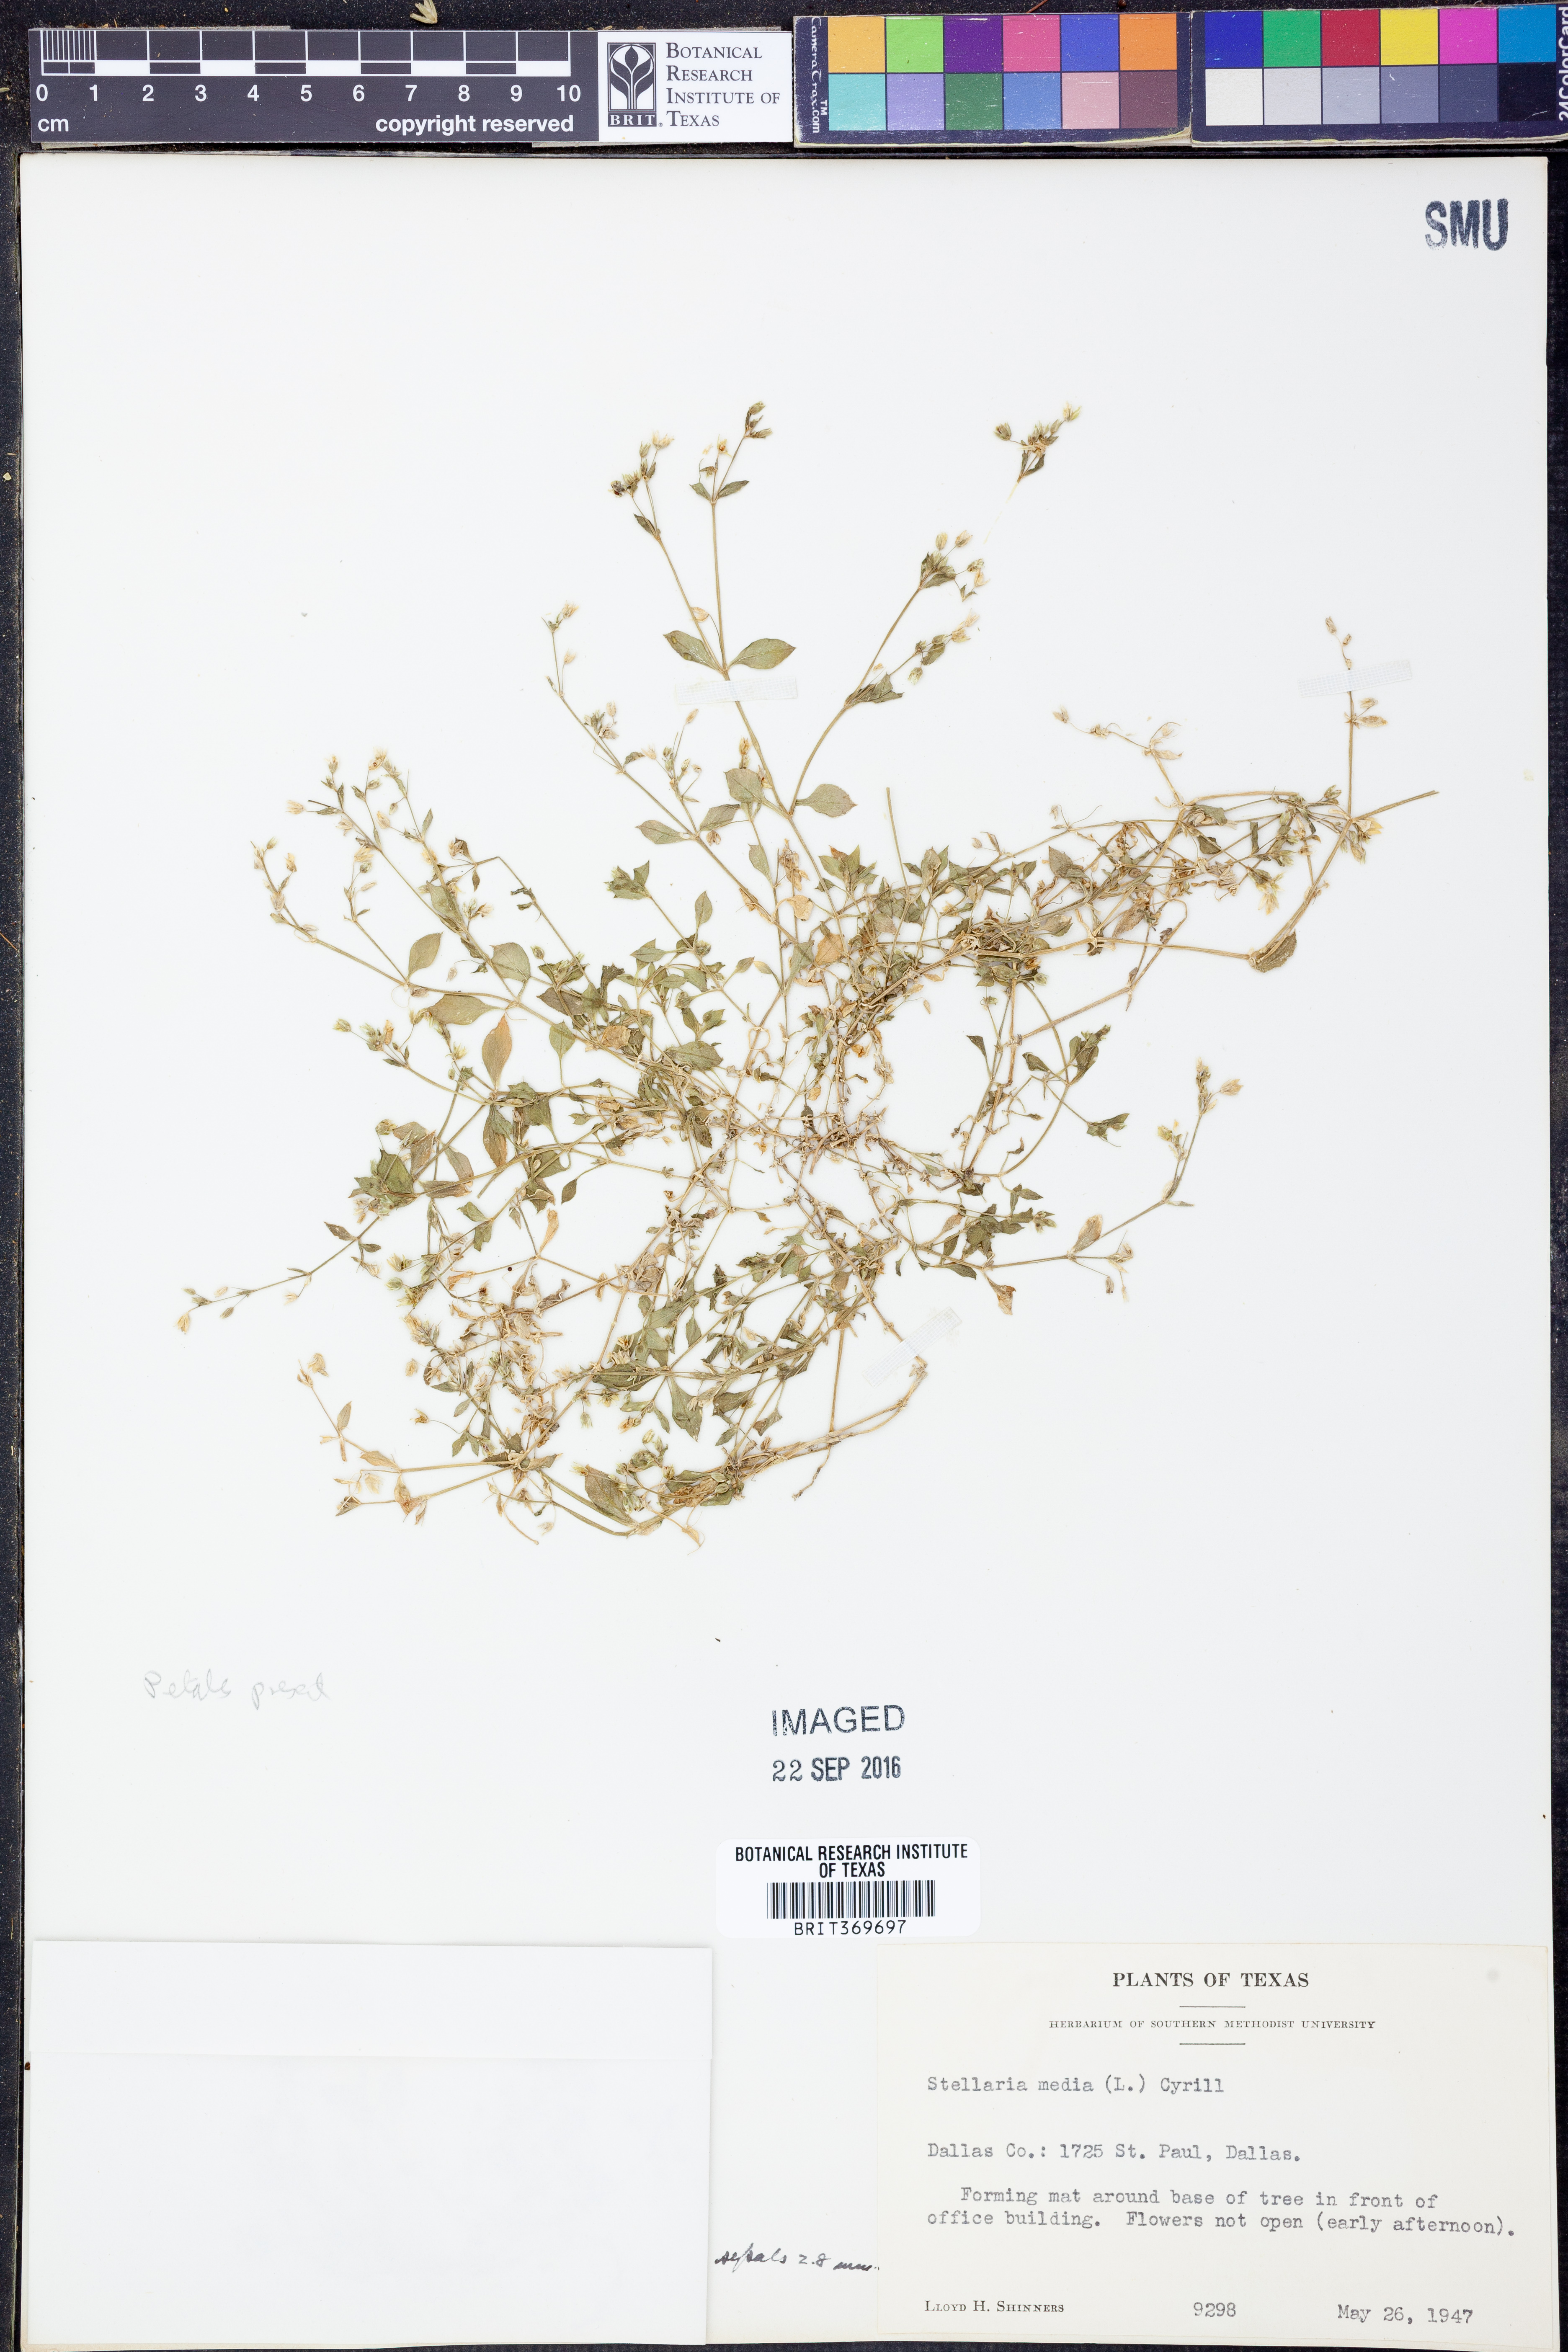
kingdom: Plantae
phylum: Tracheophyta
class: Magnoliopsida
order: Caryophyllales
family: Caryophyllaceae
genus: Stellaria
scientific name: Stellaria media
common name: Common chickweed
